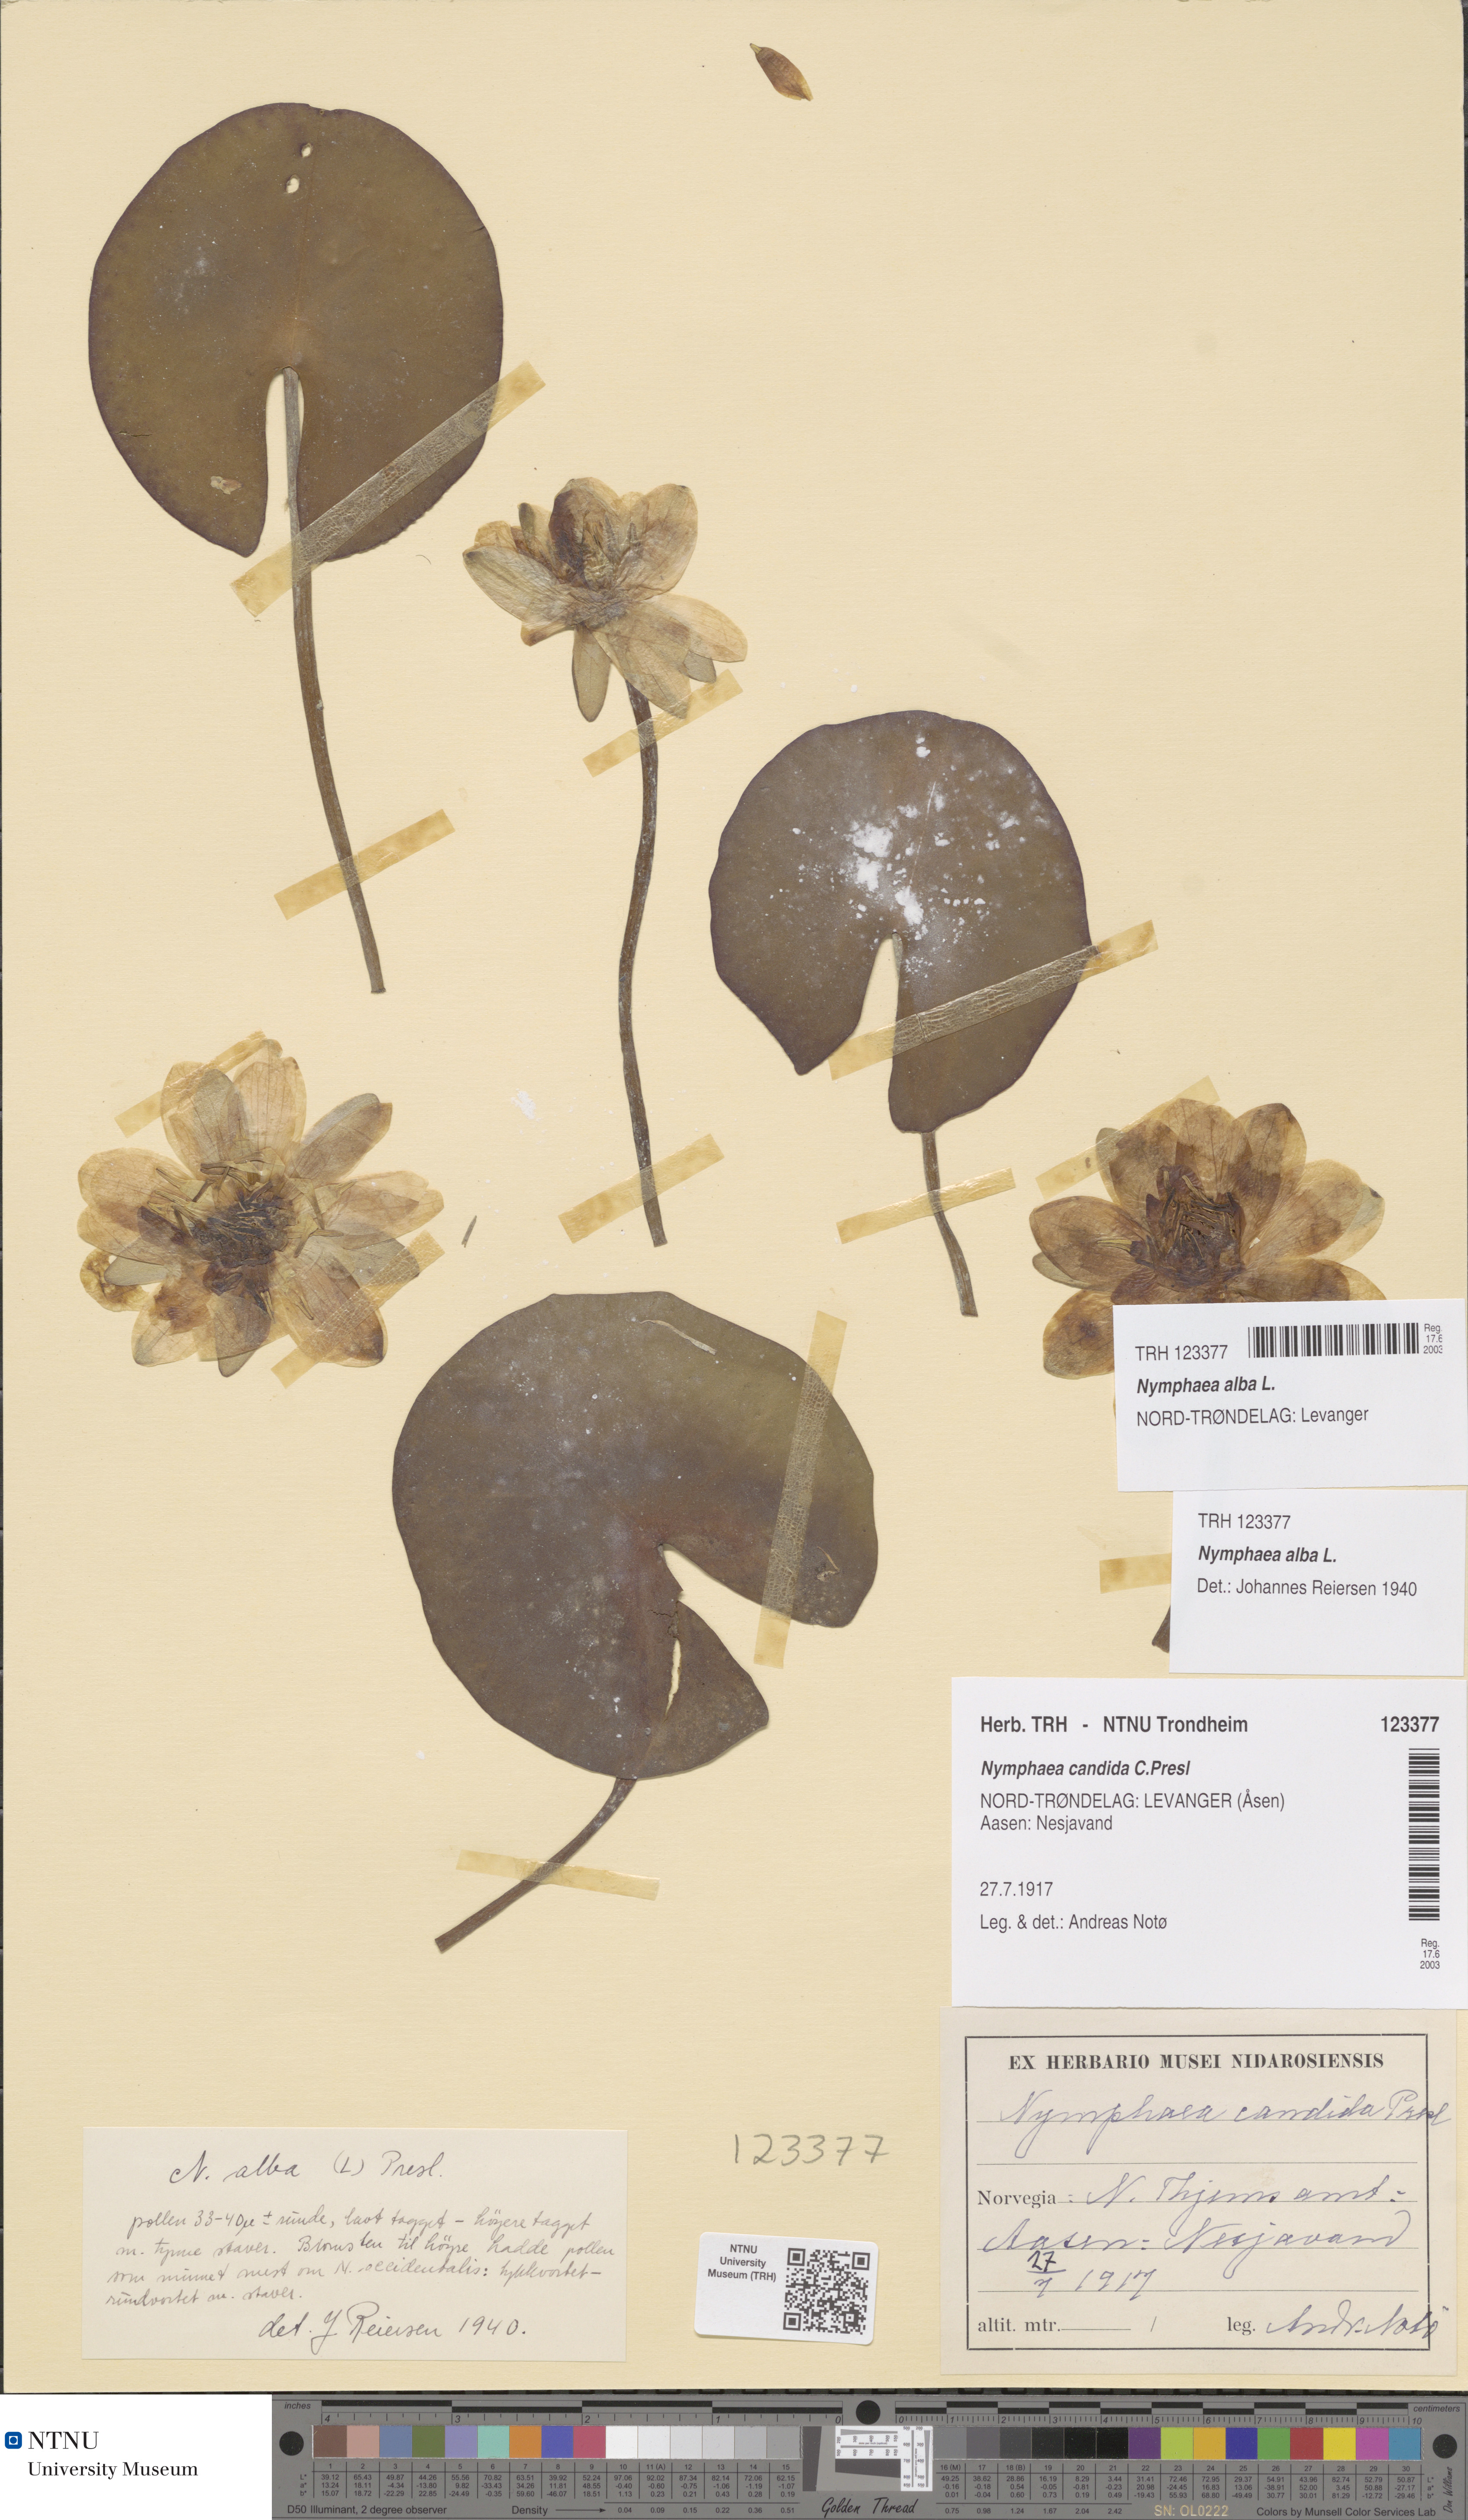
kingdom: Plantae
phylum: Tracheophyta
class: Magnoliopsida
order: Nymphaeales
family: Nymphaeaceae
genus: Nymphaea
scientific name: Nymphaea alba
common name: White water-lily
